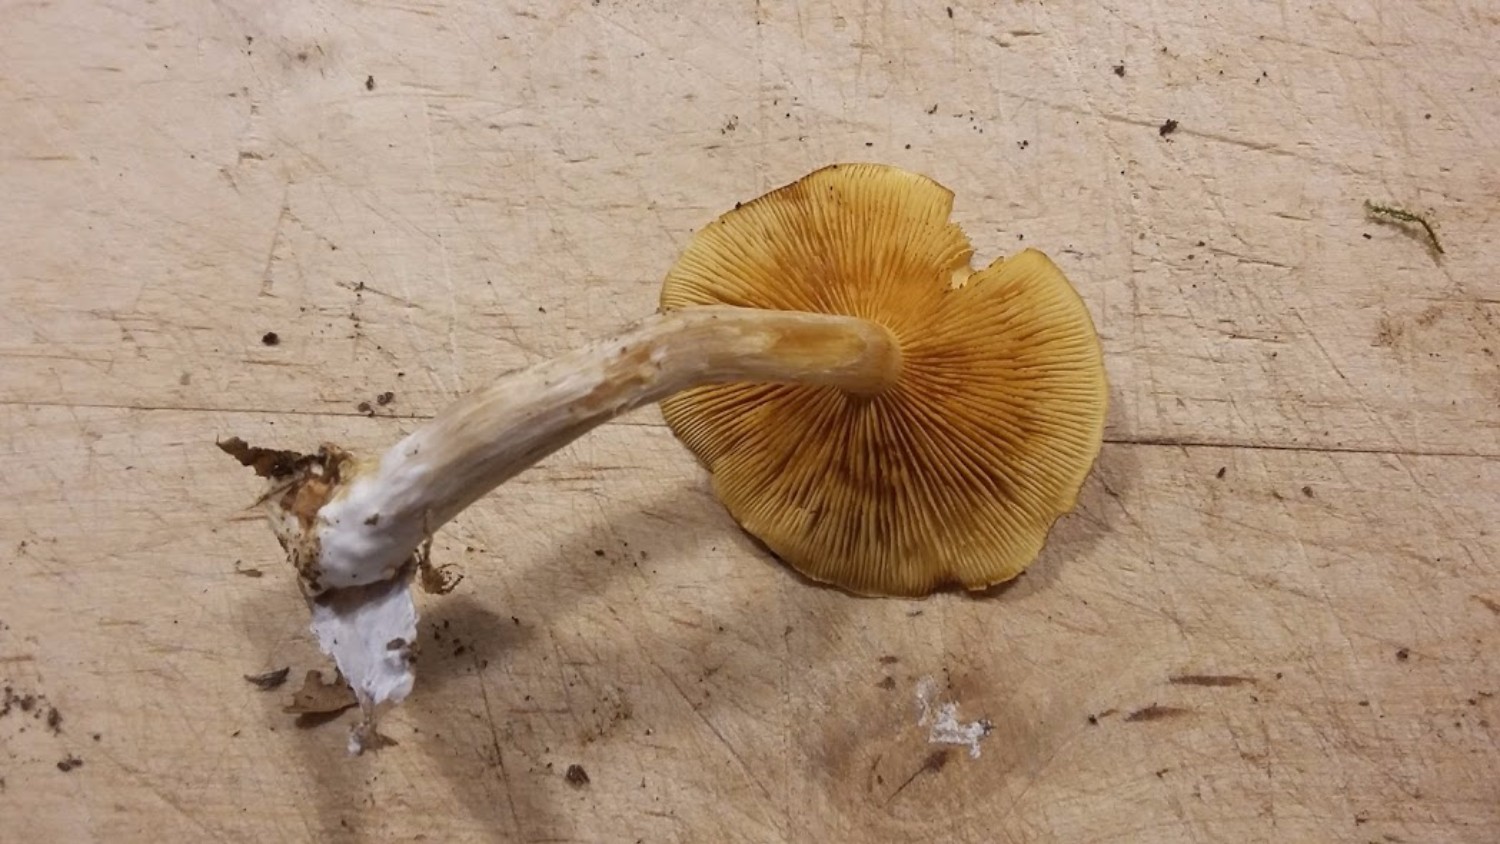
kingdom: Fungi
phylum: Basidiomycota
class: Agaricomycetes
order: Agaricales
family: Hymenogastraceae
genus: Gymnopilus
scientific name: Gymnopilus penetrans
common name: plettet flammehat
